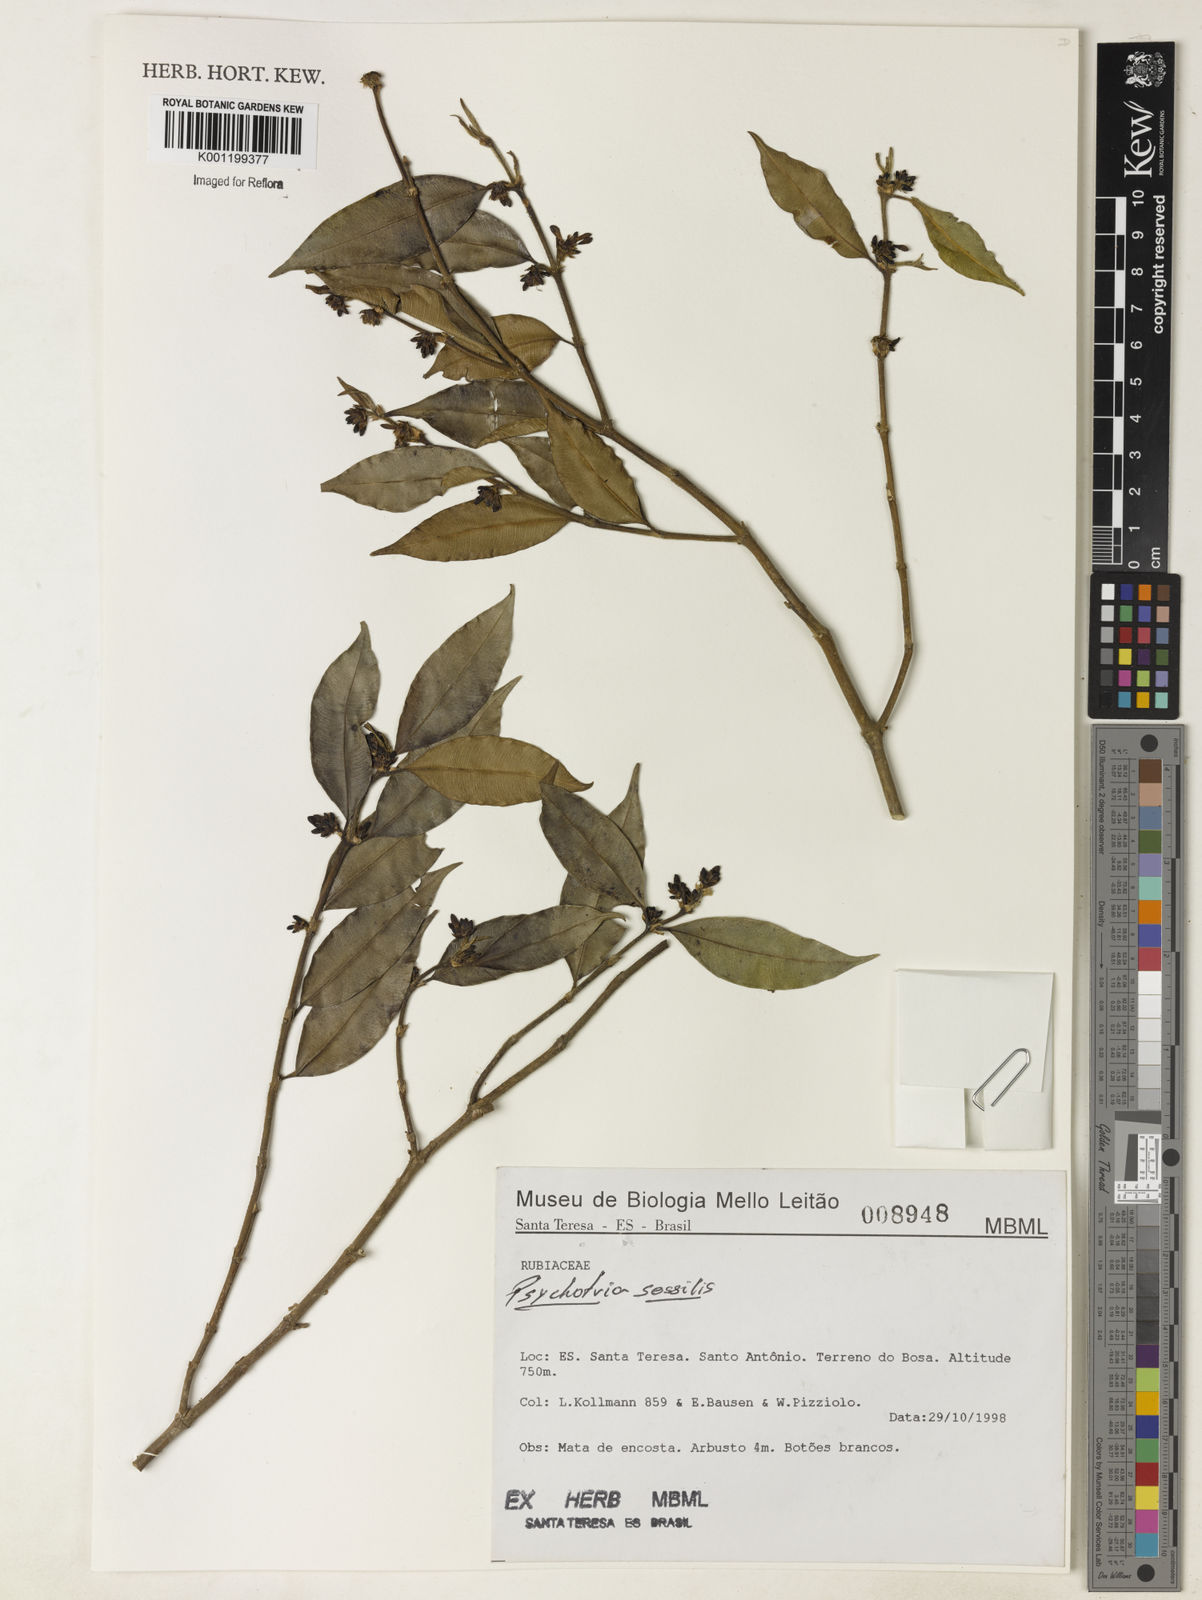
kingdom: Plantae
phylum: Tracheophyta
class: Magnoliopsida
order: Gentianales
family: Rubiaceae
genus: Rudgea
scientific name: Rudgea sessilis
